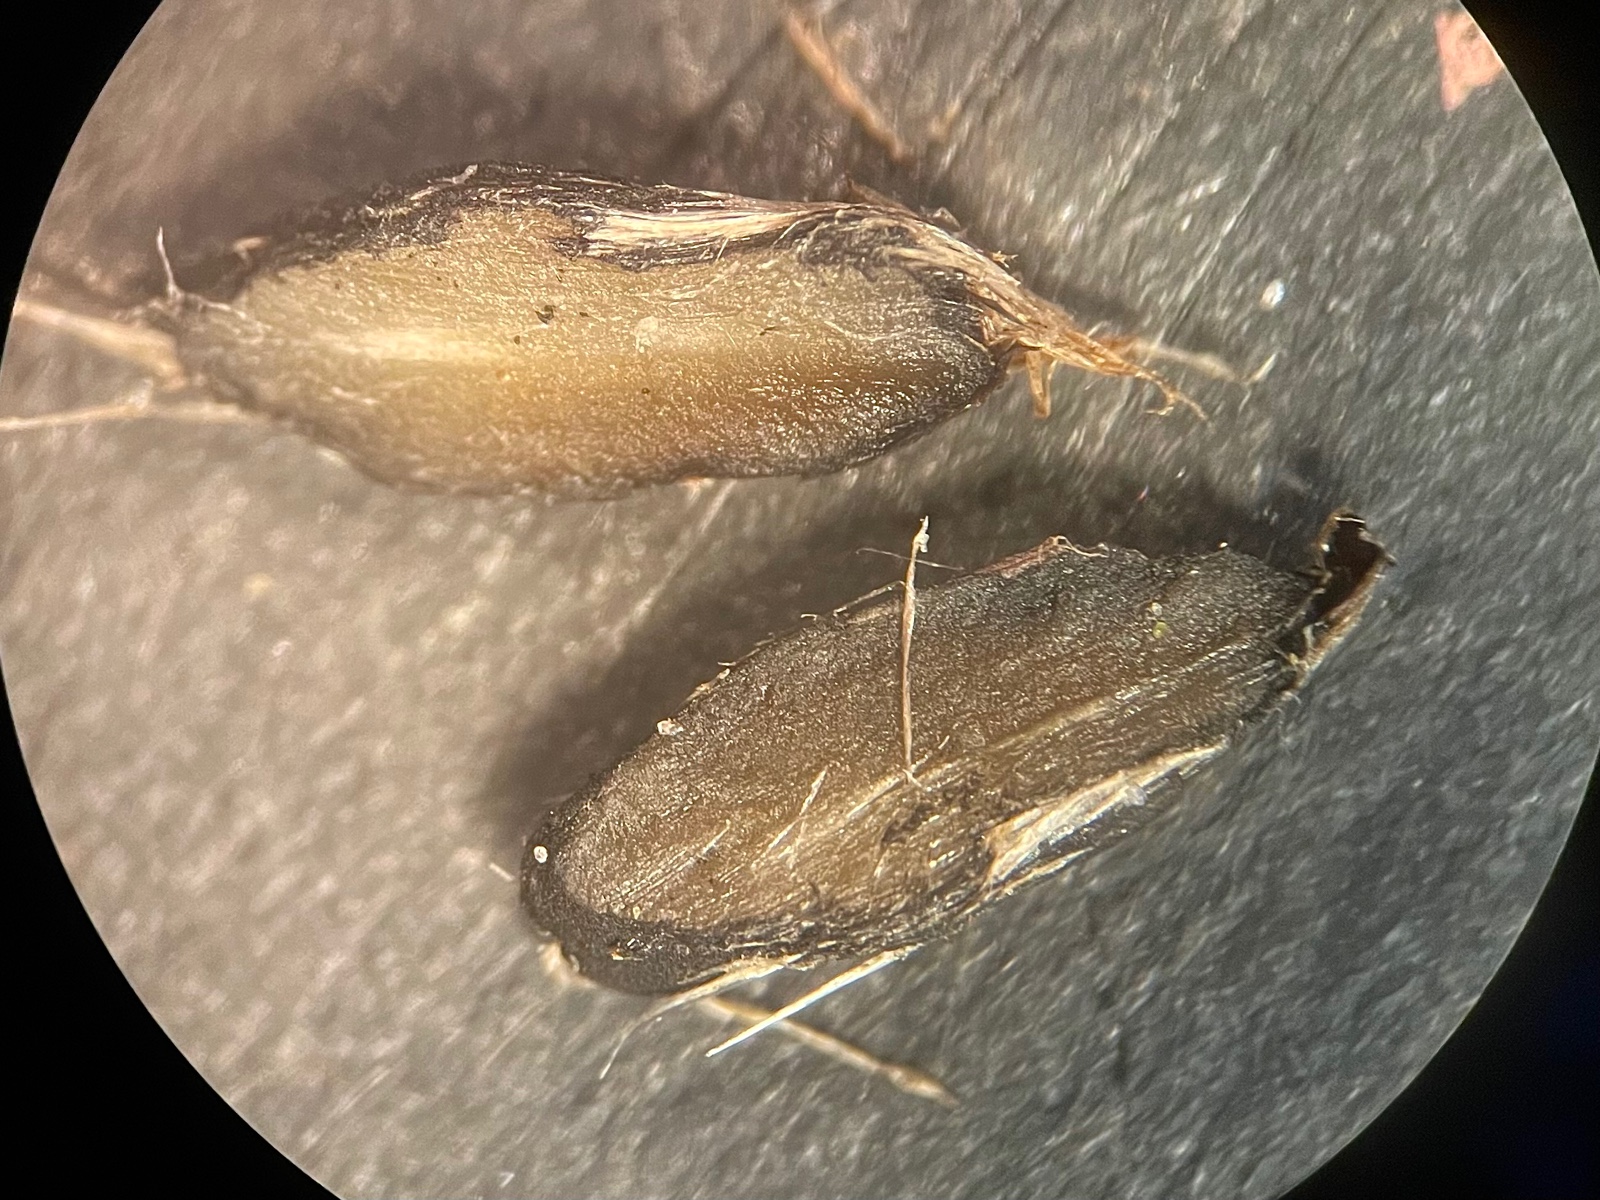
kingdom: Fungi
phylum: Basidiomycota
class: Agaricomycetes
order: Agaricales
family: Typhulaceae
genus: Sclerotium
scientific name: Sclerotium
